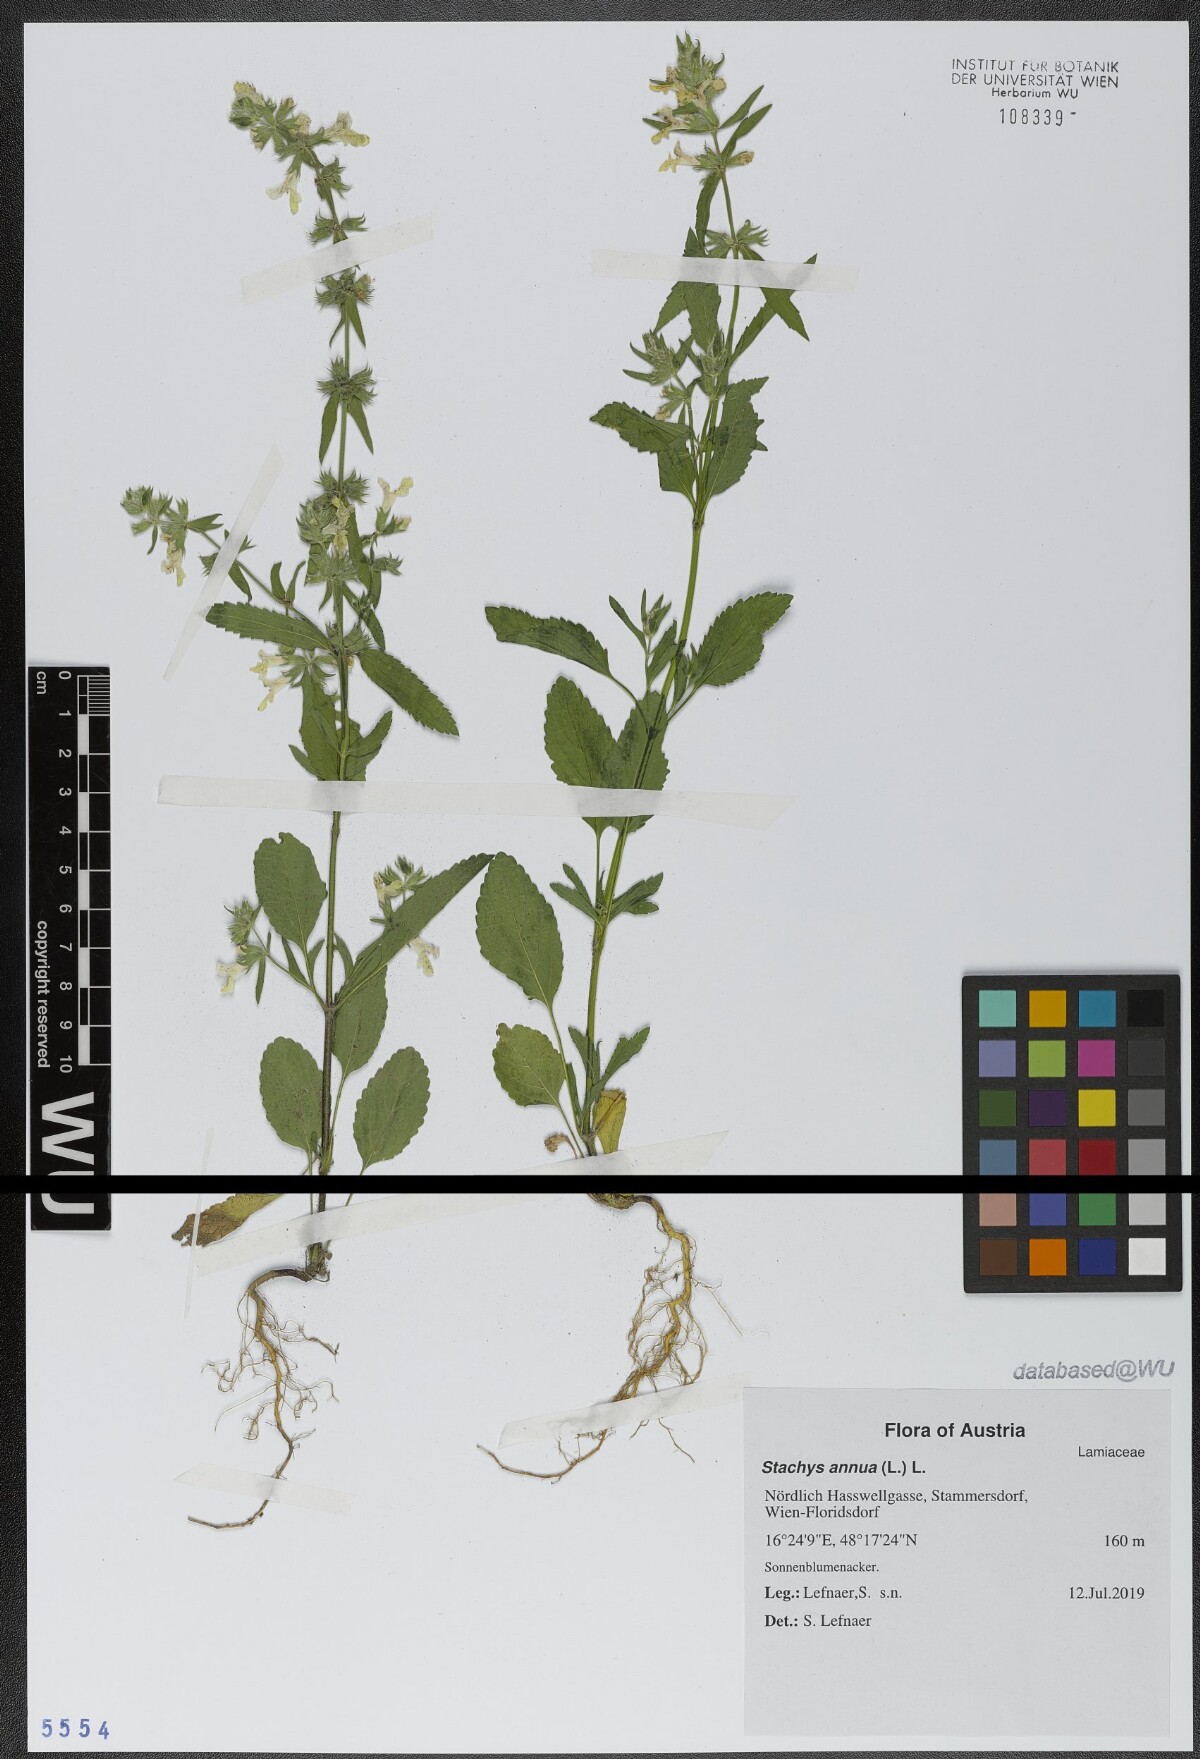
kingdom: Plantae
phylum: Tracheophyta
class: Magnoliopsida
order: Lamiales
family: Lamiaceae
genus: Stachys
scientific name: Stachys annua
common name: Annual yellow-woundwort
